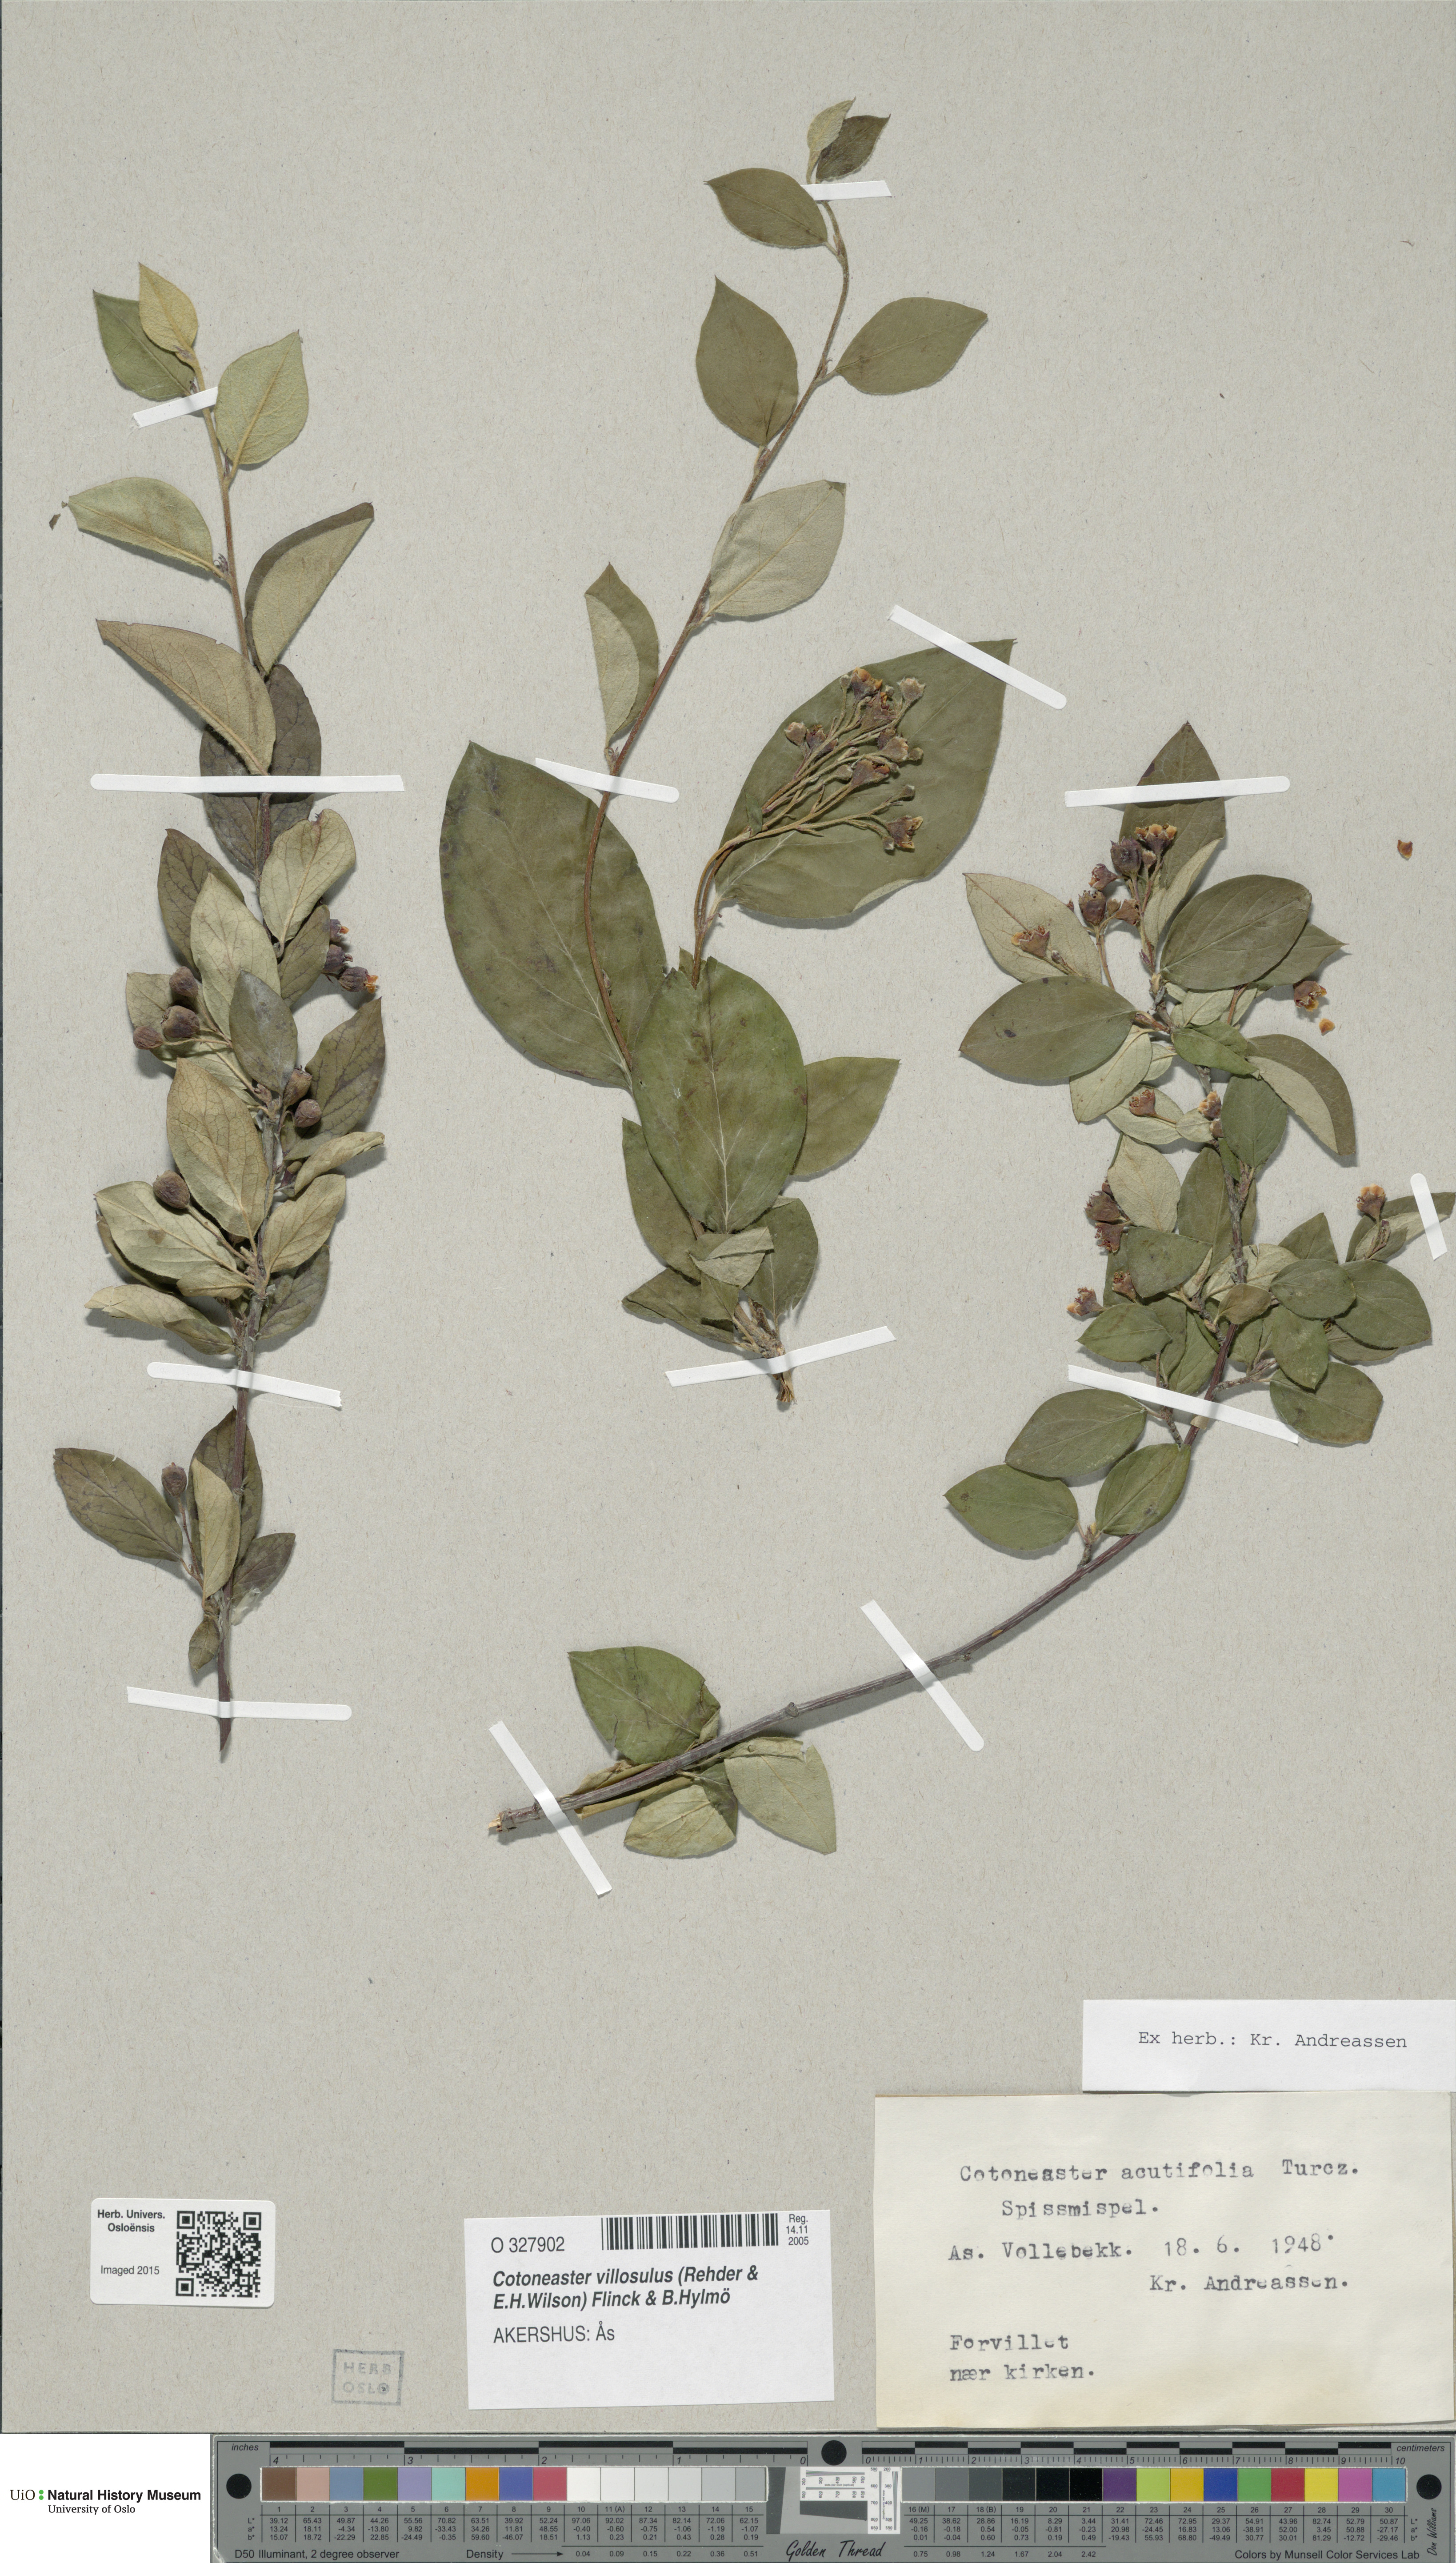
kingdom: Plantae
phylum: Tracheophyta
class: Magnoliopsida
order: Rosales
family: Rosaceae
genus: Cotoneaster
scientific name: Cotoneaster acutifolius
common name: Peking cotoneaster
